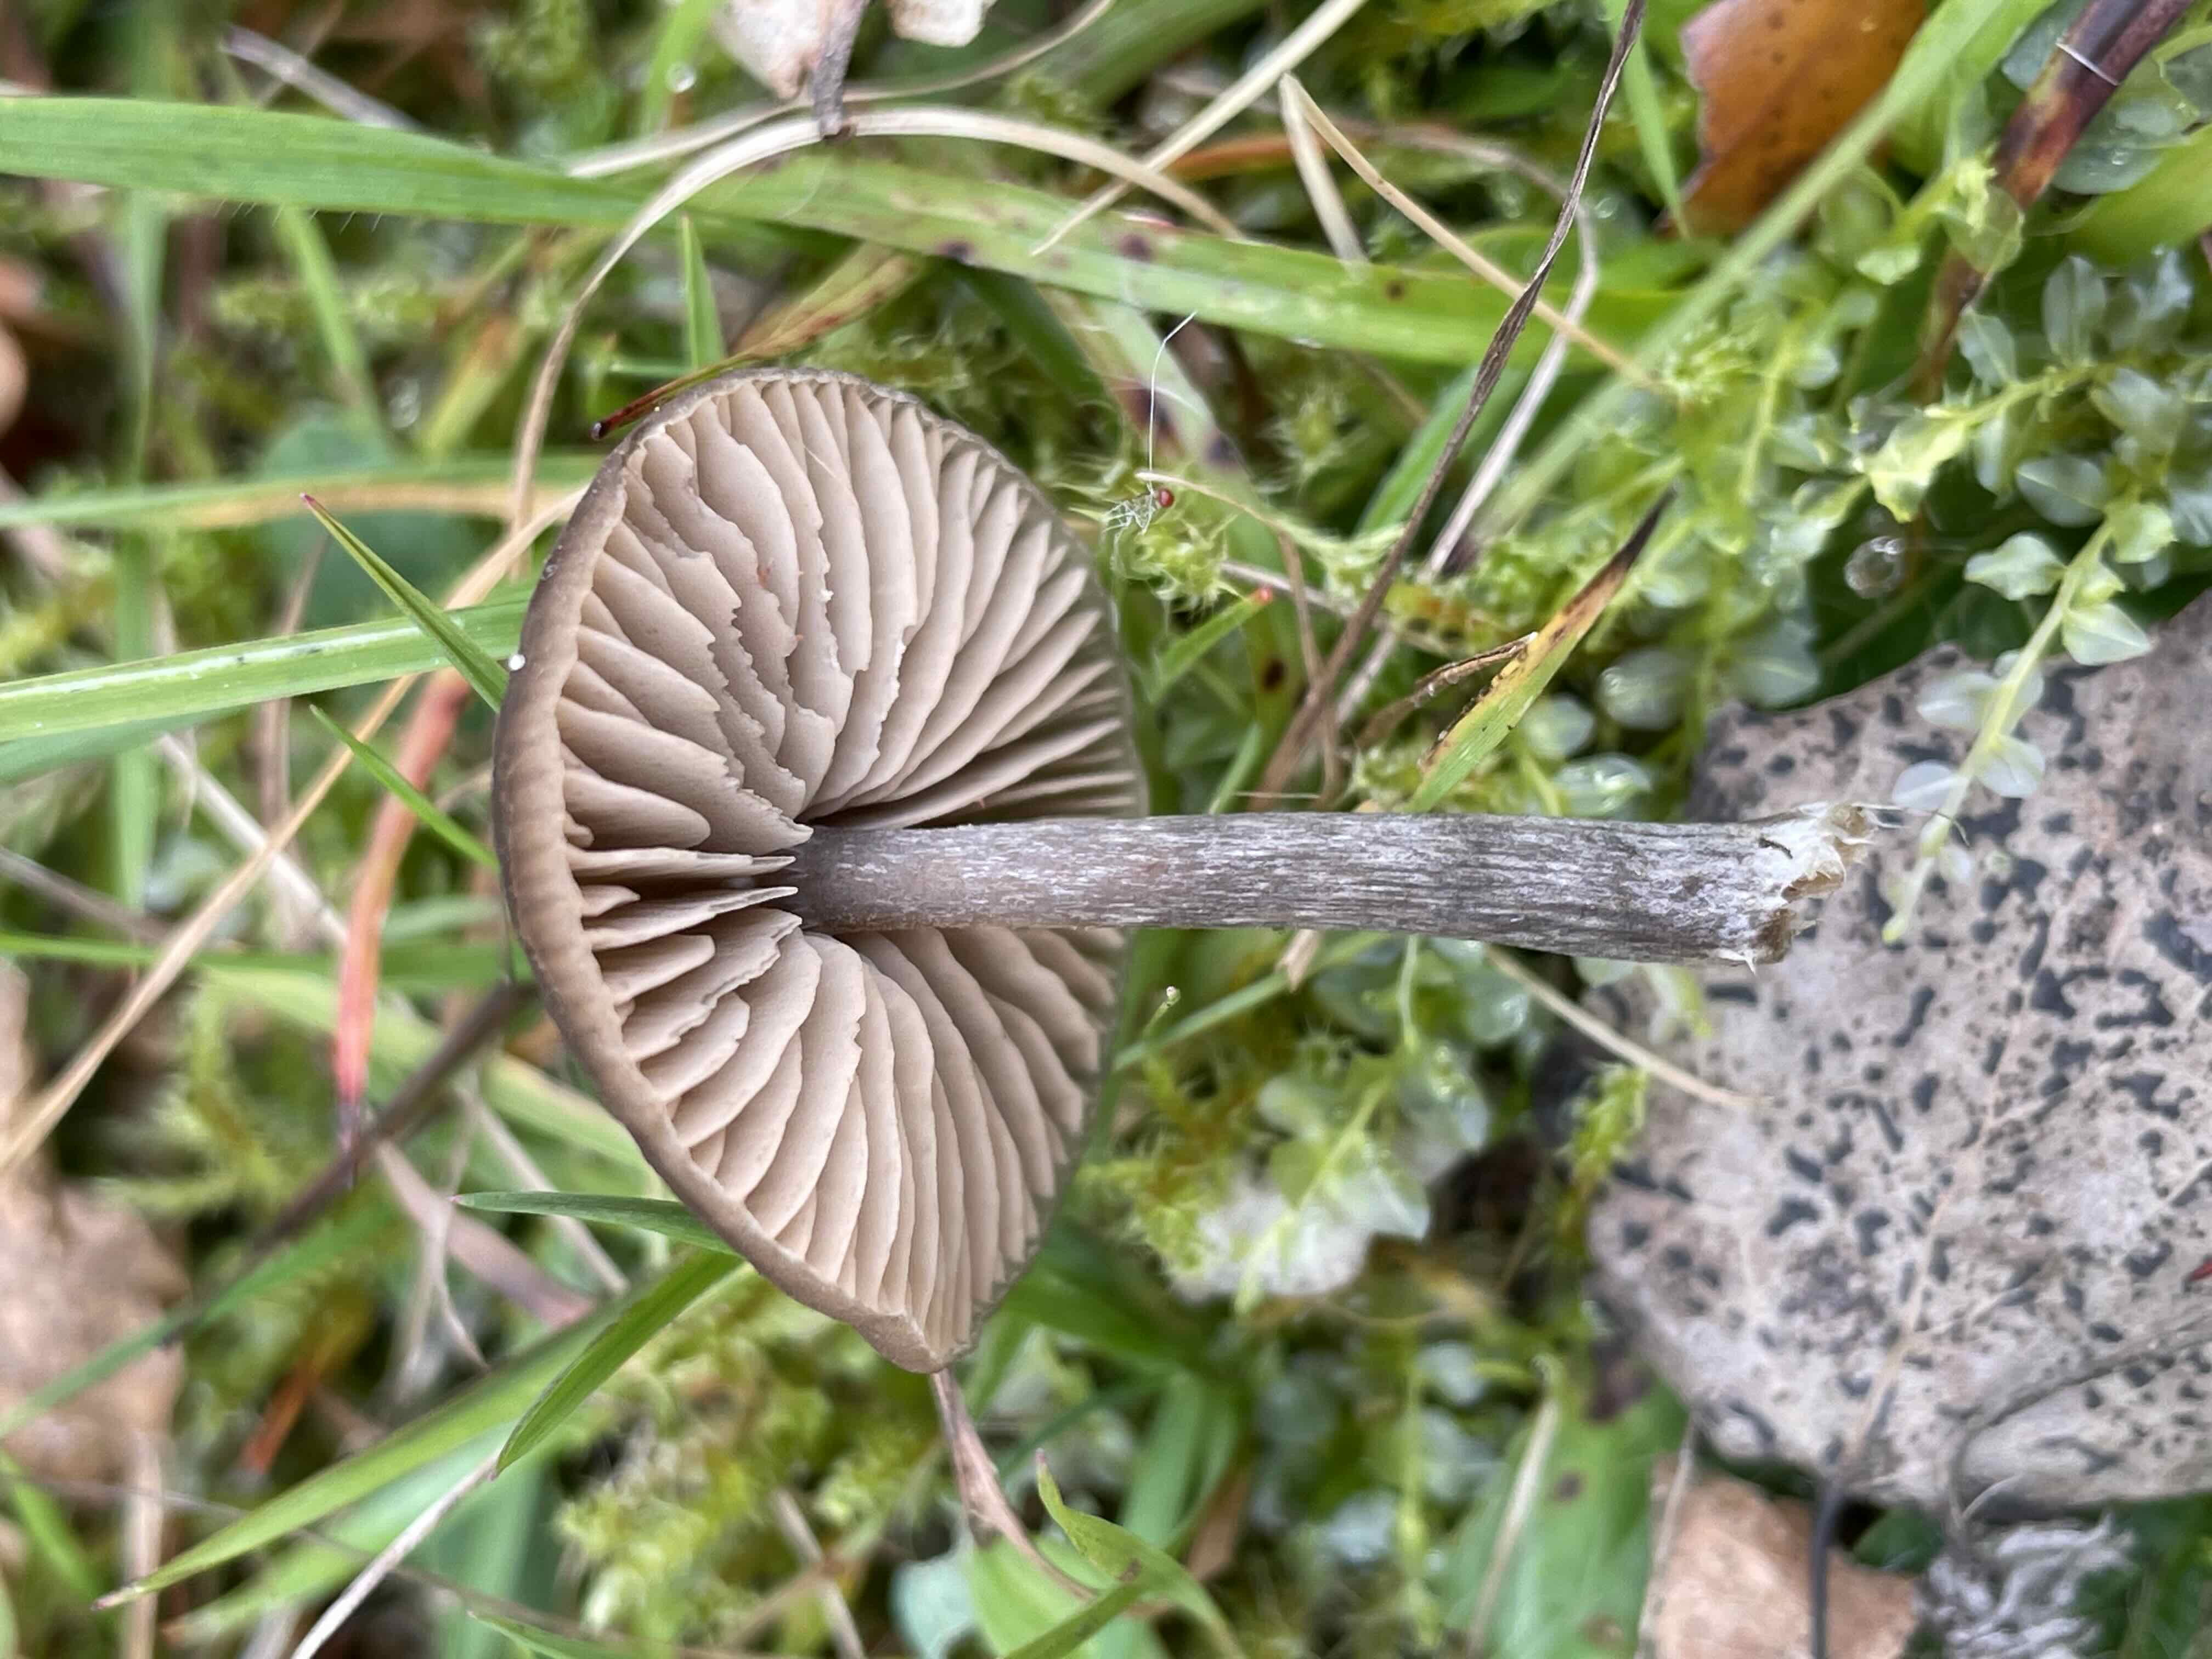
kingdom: Fungi
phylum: Basidiomycota
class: Agaricomycetes
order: Agaricales
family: Entolomataceae
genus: Entoloma
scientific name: Entoloma
